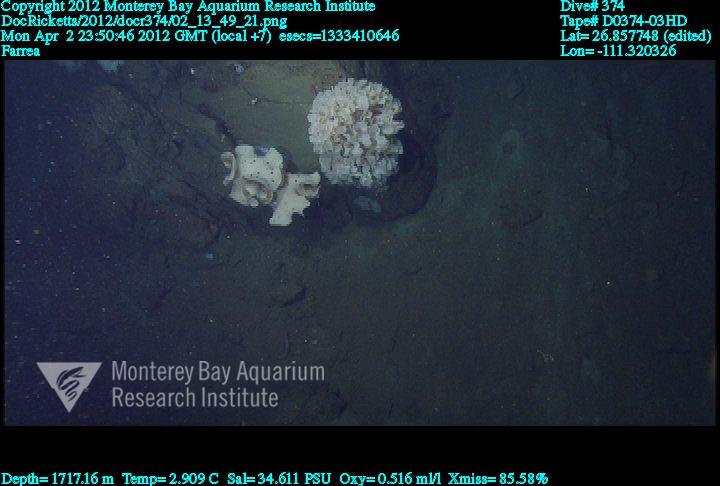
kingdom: Animalia
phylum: Porifera
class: Hexactinellida
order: Sceptrulophora
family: Farreidae
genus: Farrea
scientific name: Farrea
